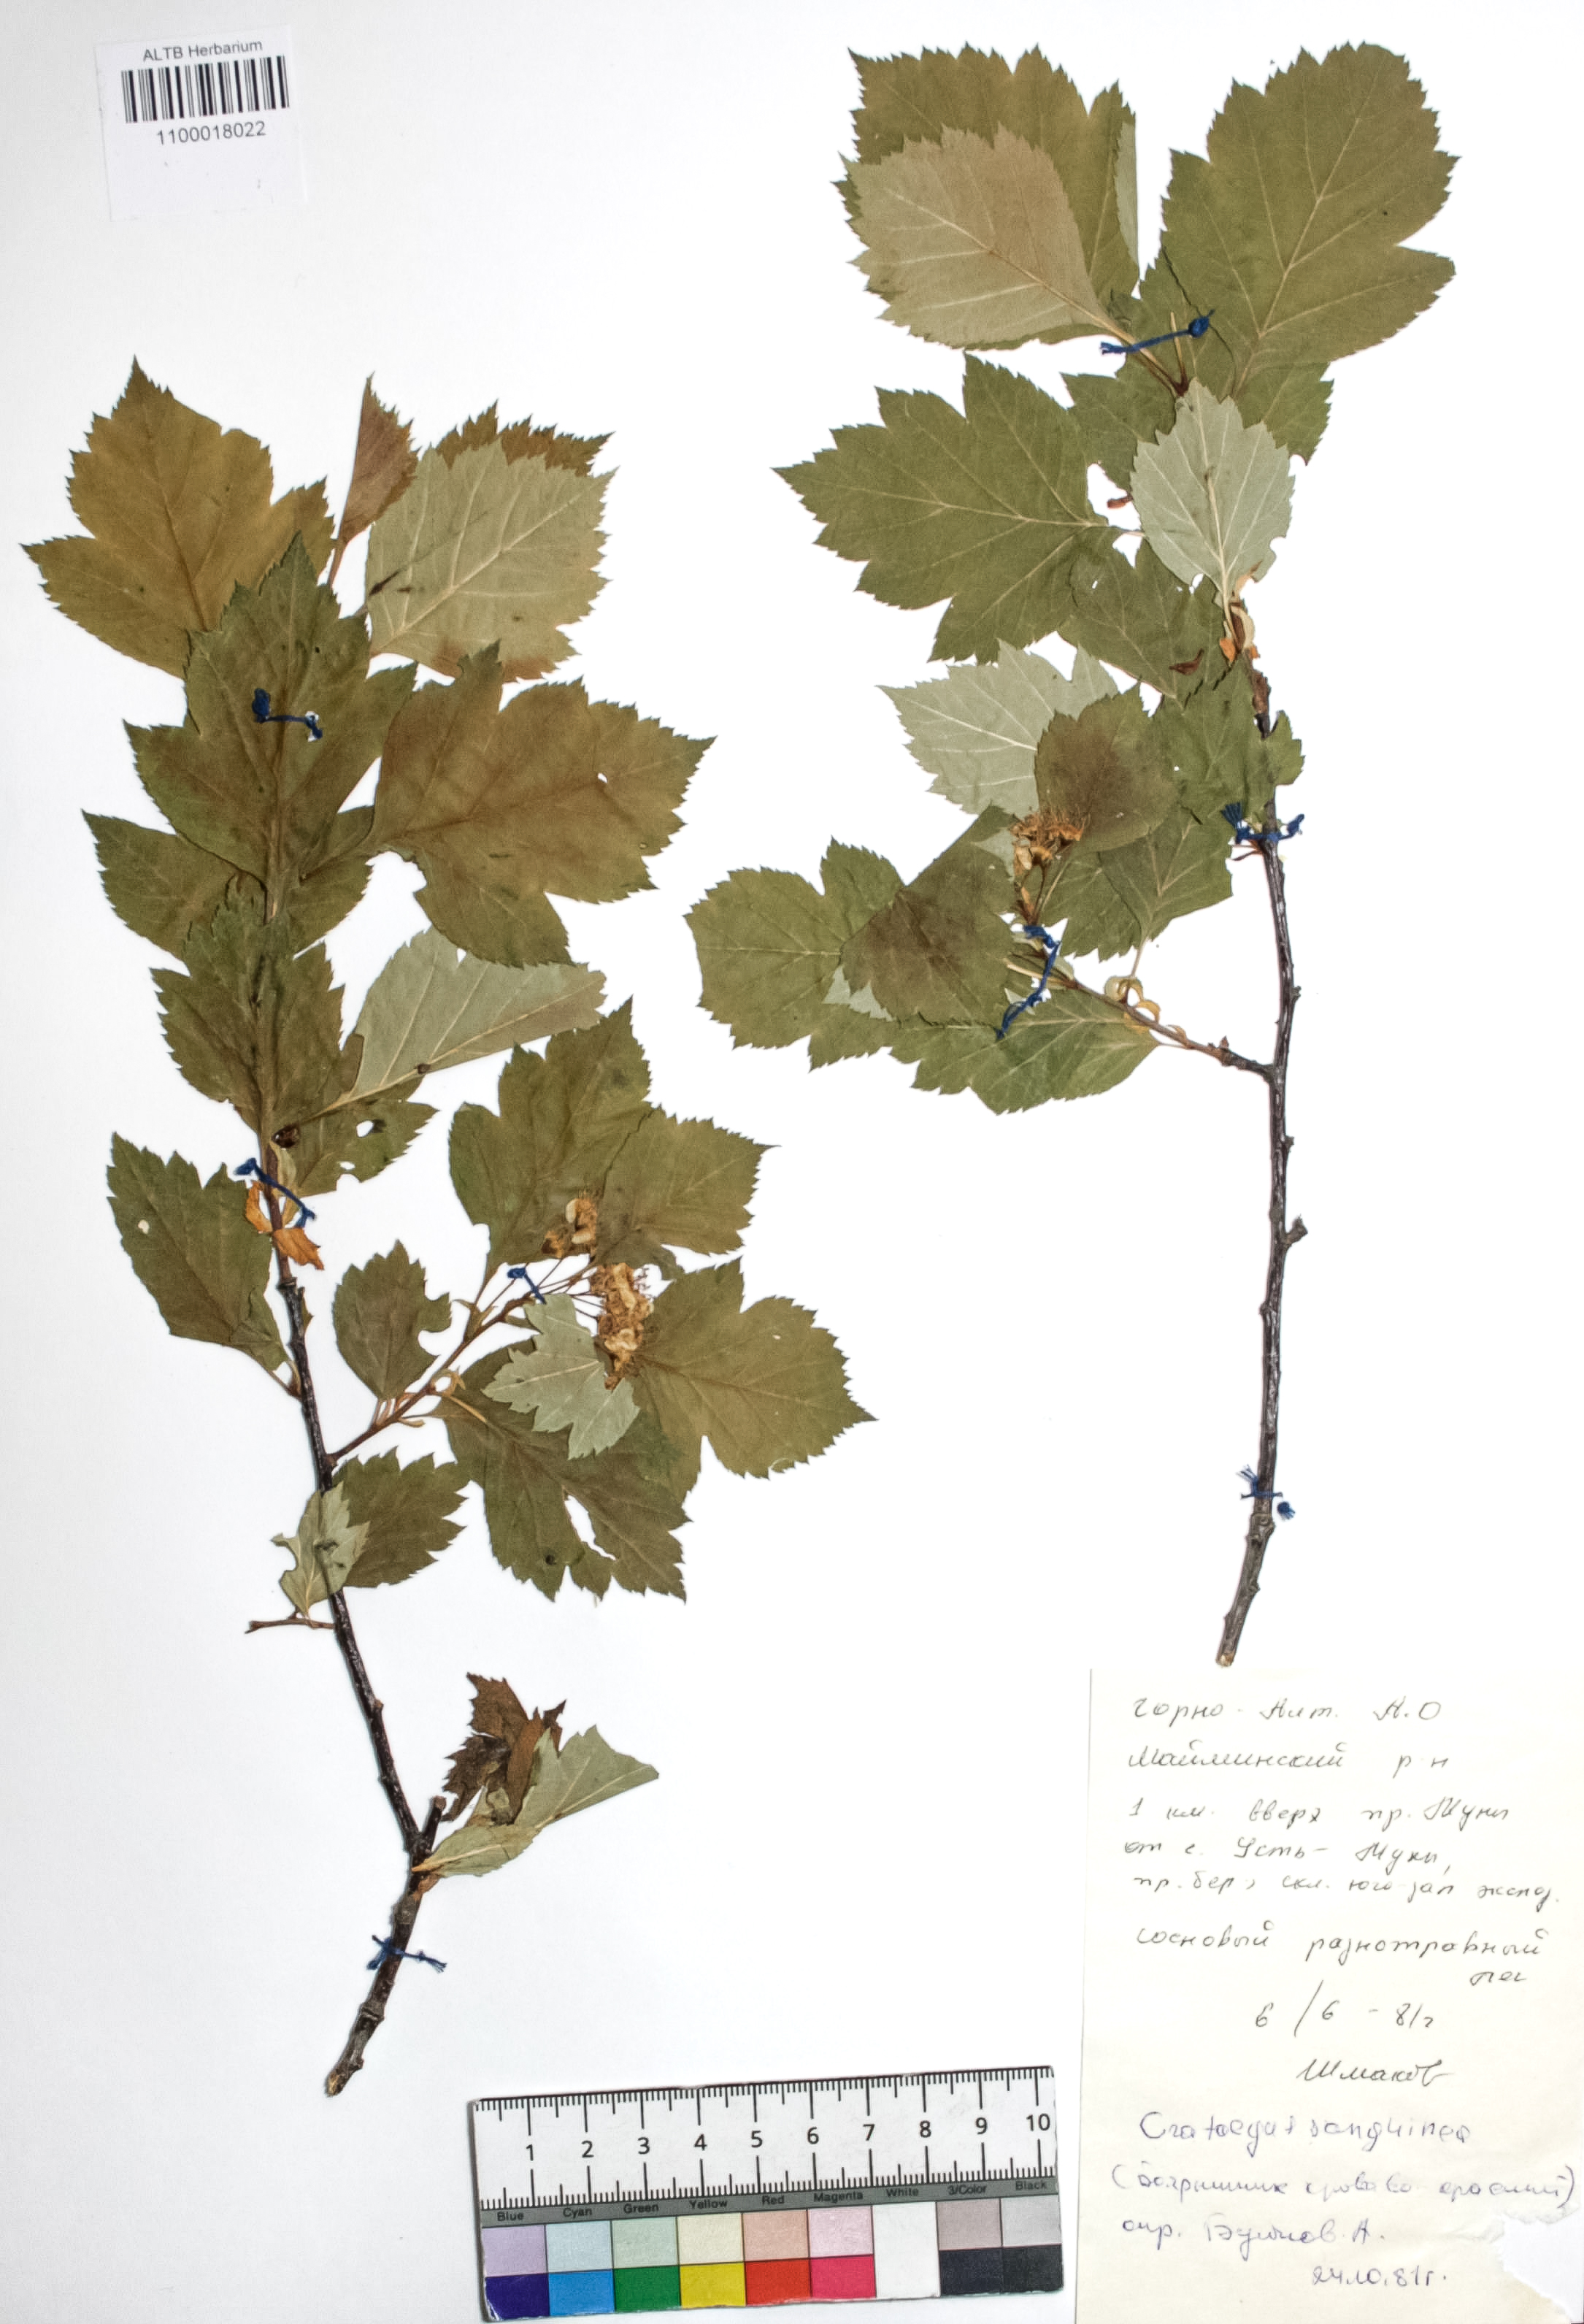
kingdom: Plantae
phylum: Tracheophyta
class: Magnoliopsida
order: Rosales
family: Rosaceae
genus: Crataegus
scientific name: Crataegus sanguinea
